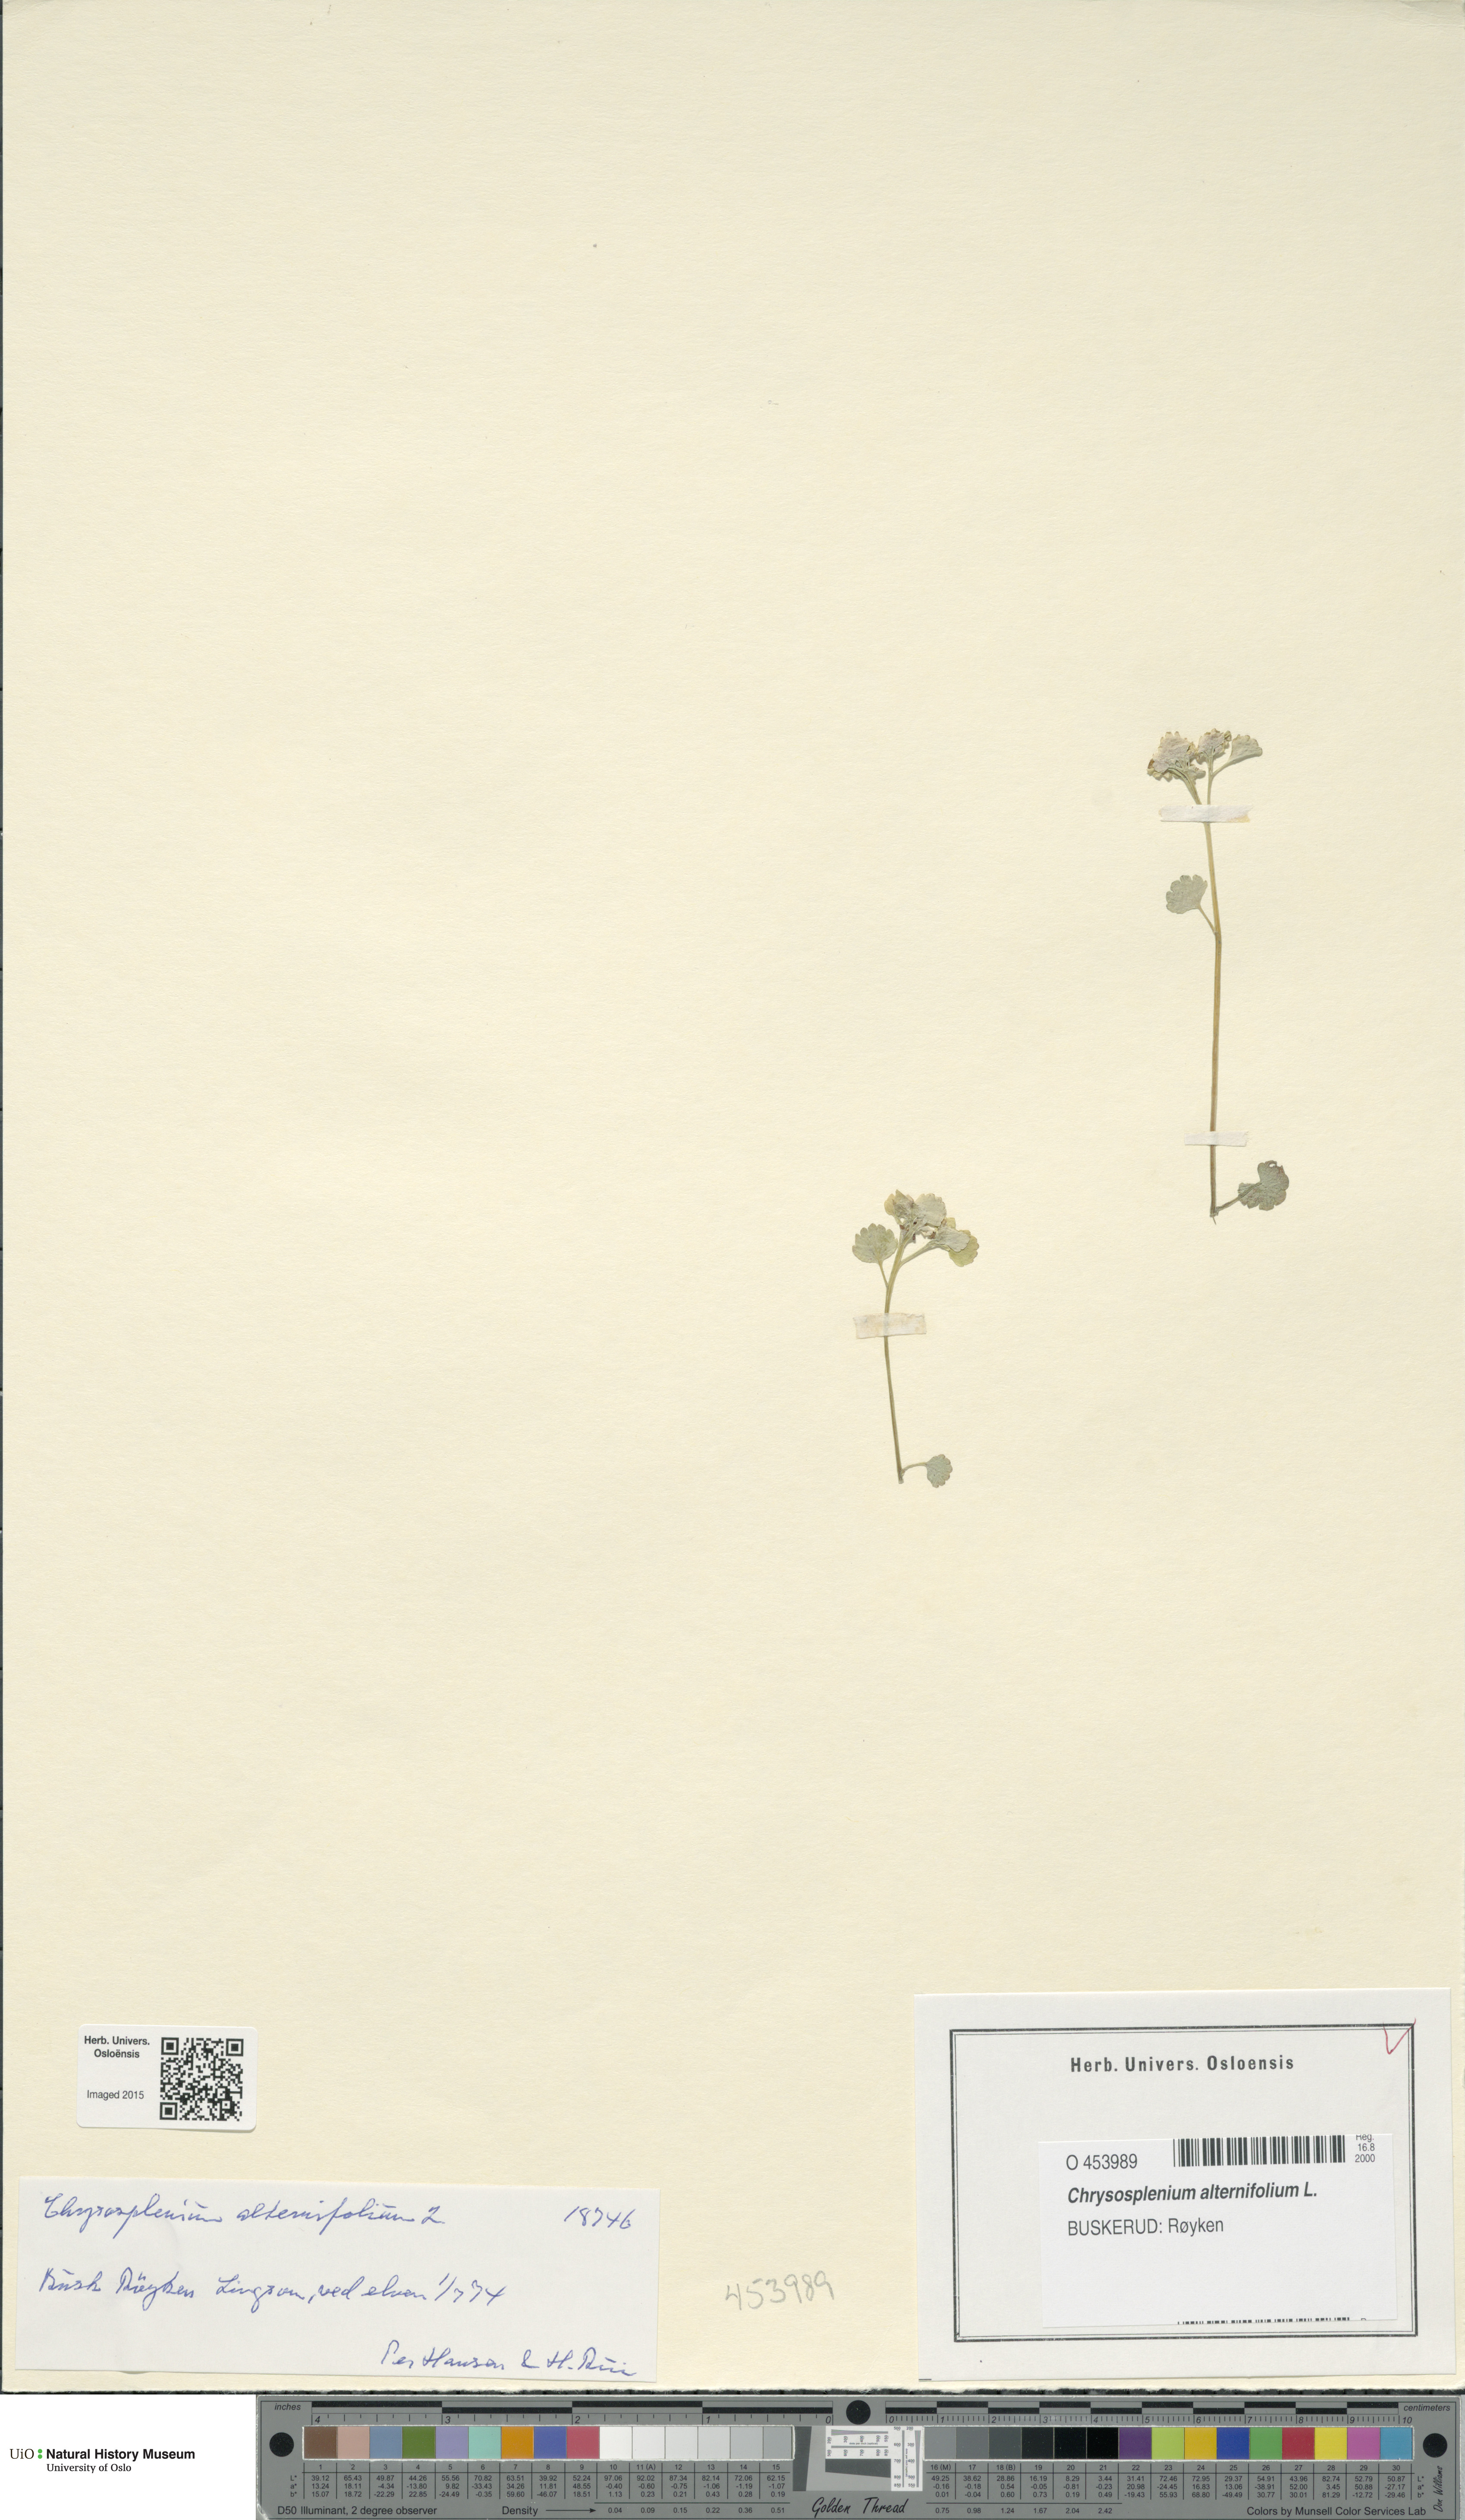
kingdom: Plantae
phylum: Tracheophyta
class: Magnoliopsida
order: Saxifragales
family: Saxifragaceae
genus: Chrysosplenium
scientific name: Chrysosplenium alternifolium
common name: Alternate-leaved golden-saxifrage
